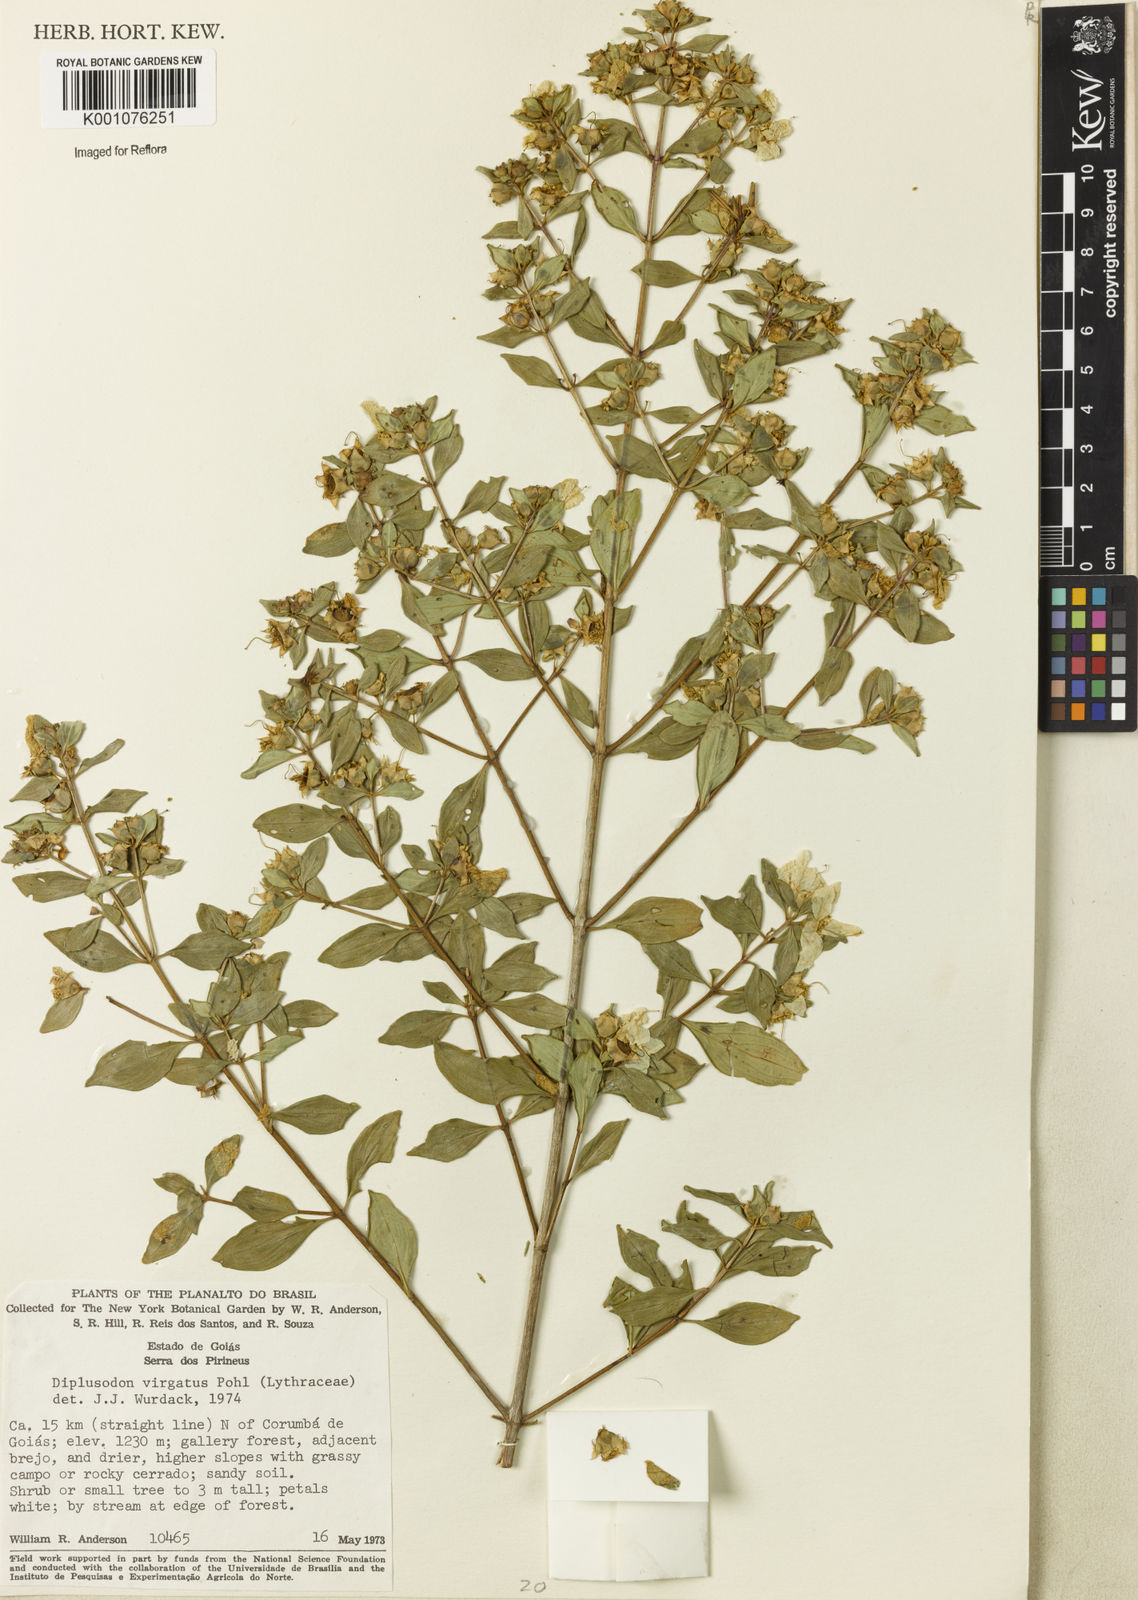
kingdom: Plantae
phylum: Tracheophyta
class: Magnoliopsida
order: Myrtales
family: Lythraceae
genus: Diplusodon
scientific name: Diplusodon virgatus
